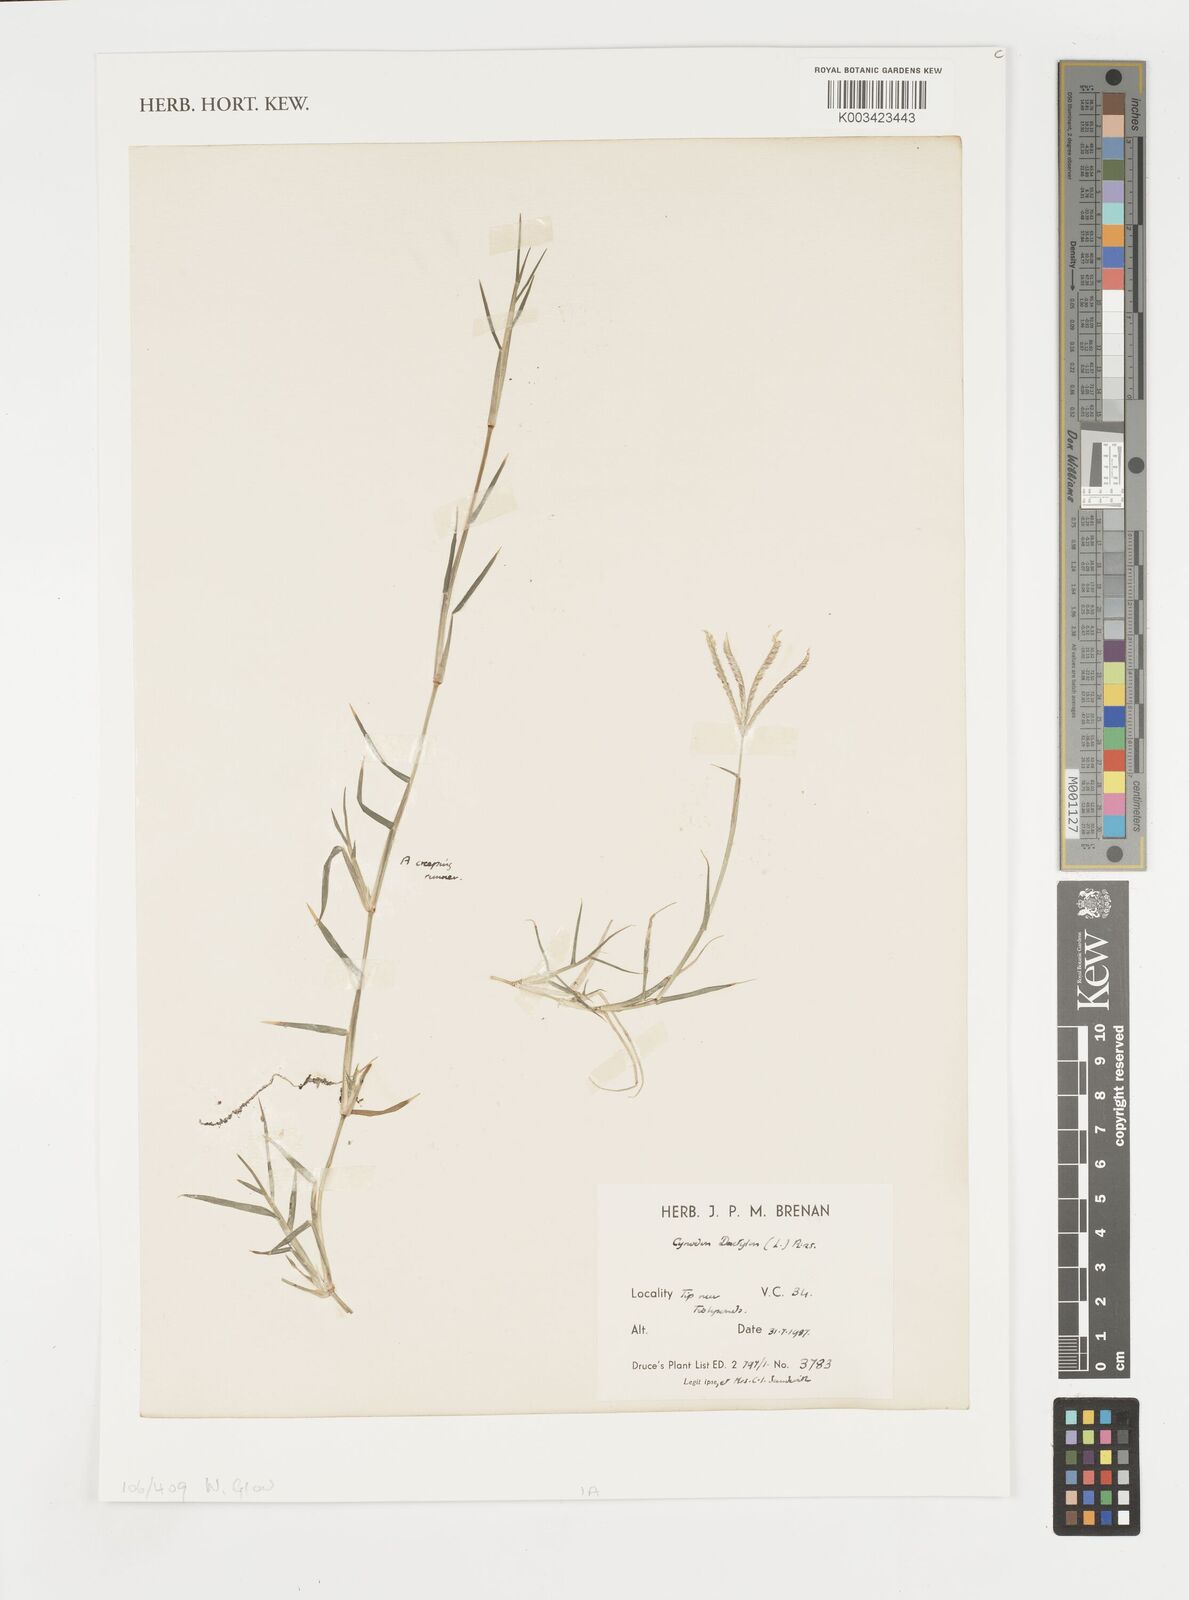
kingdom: Plantae
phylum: Tracheophyta
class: Liliopsida
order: Poales
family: Poaceae
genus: Cynodon
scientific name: Cynodon dactylon
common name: Bermuda grass
